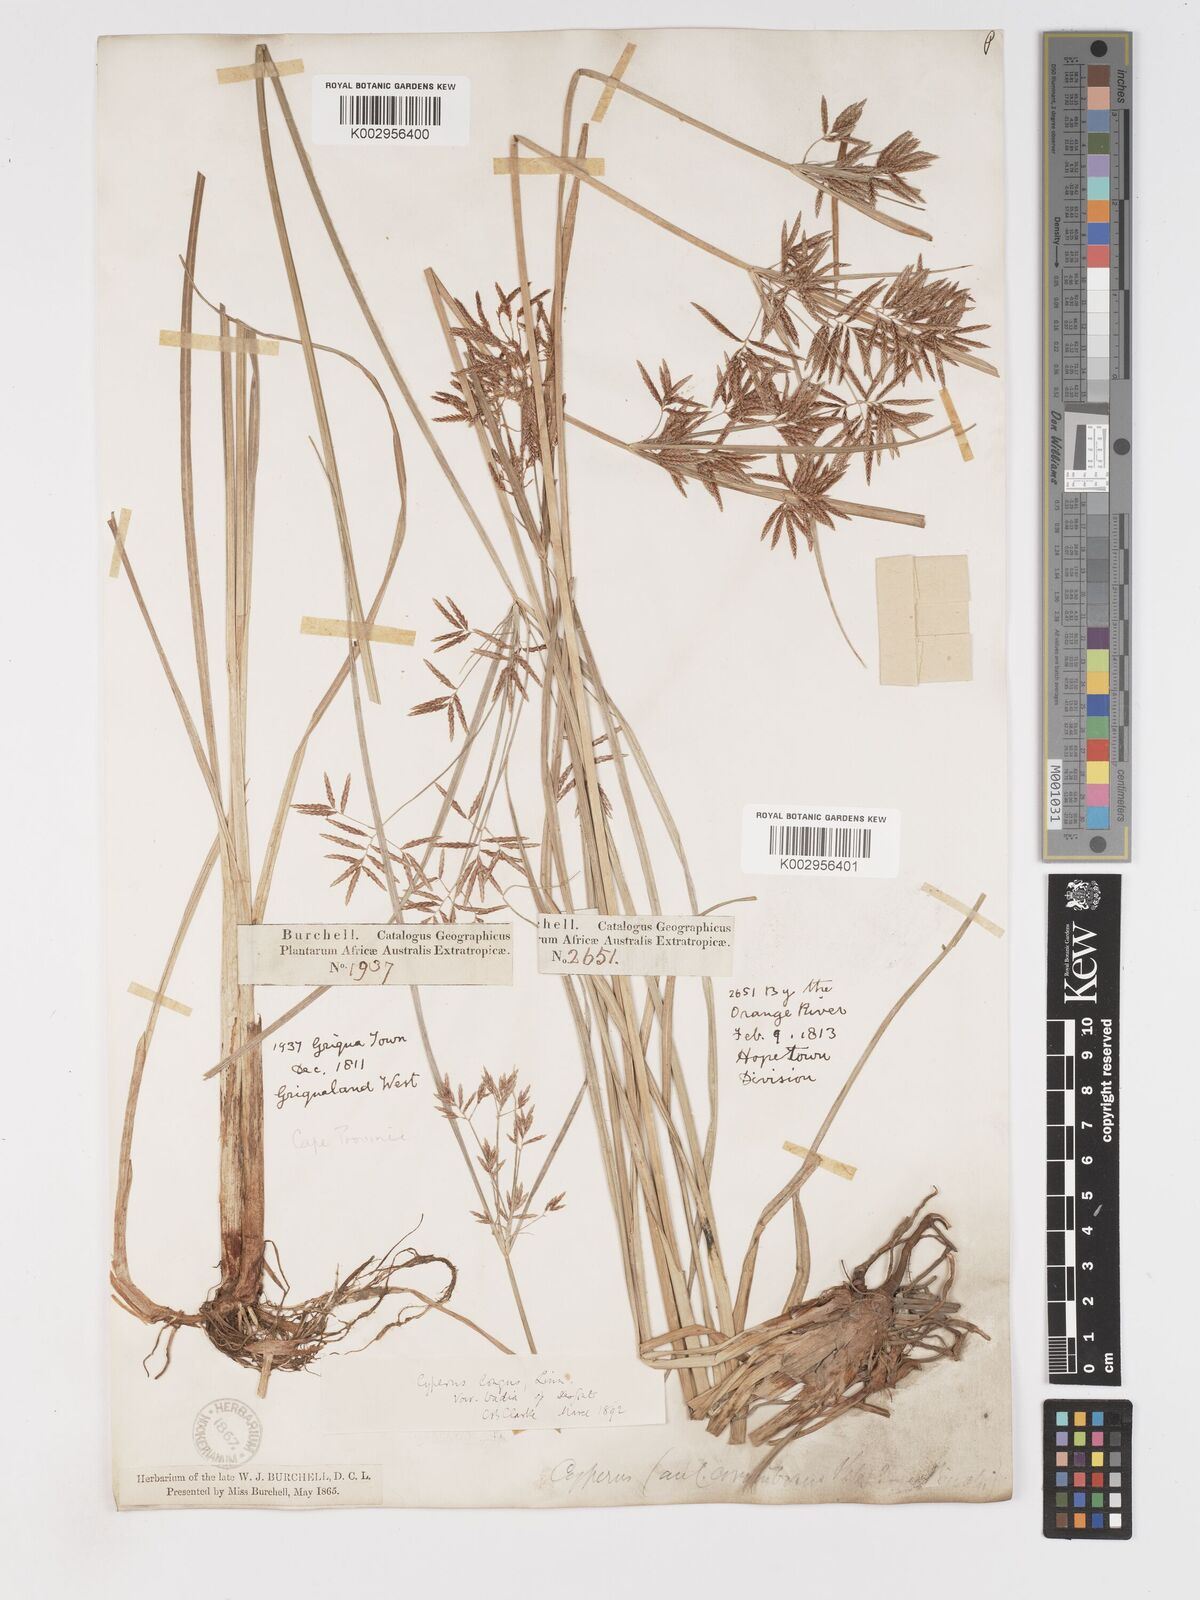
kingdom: Plantae
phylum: Tracheophyta
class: Liliopsida
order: Poales
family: Cyperaceae
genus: Cyperus
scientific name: Cyperus longus
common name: Galingale
